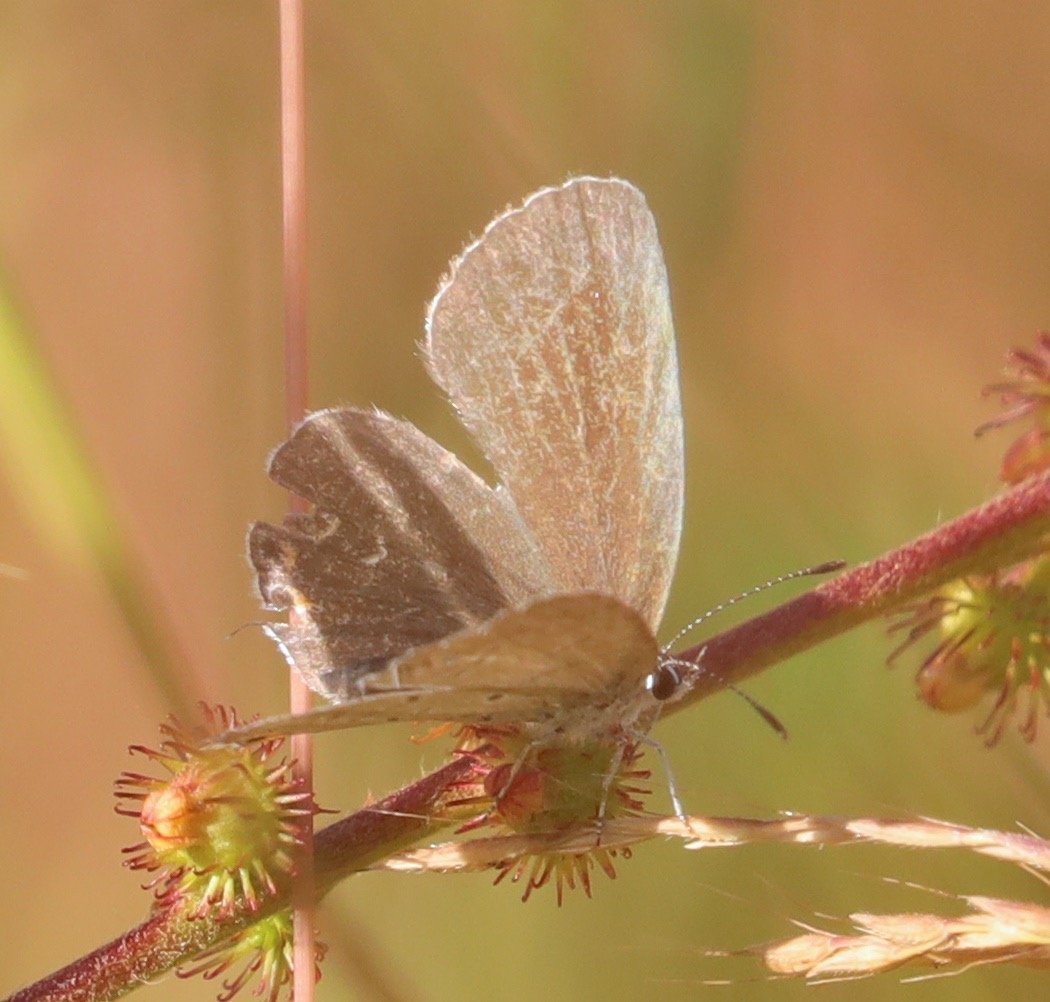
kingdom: Animalia
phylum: Arthropoda
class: Insecta
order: Lepidoptera
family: Lycaenidae
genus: Elkalyce
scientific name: Elkalyce comyntas
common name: Eastern Tailed-Blue
